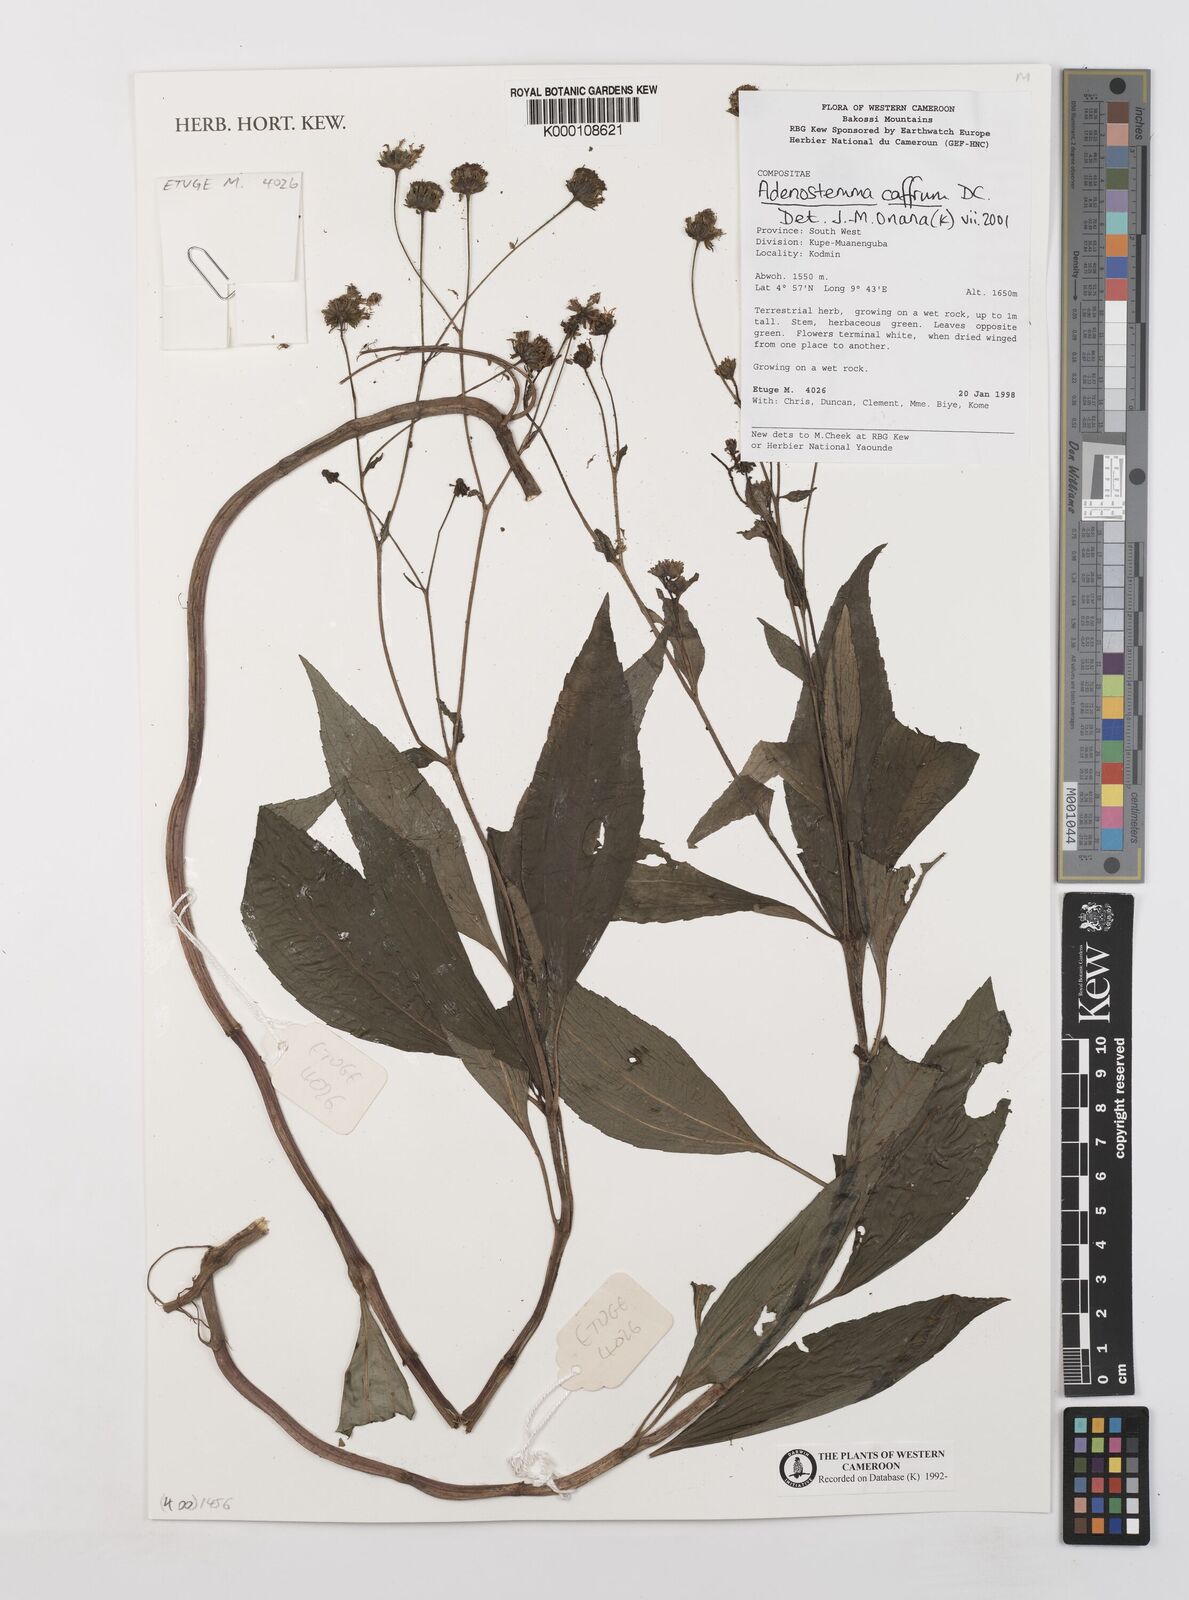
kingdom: Plantae
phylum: Tracheophyta
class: Magnoliopsida
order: Asterales
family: Asteraceae
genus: Adenostemma
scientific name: Adenostemma caffrum
